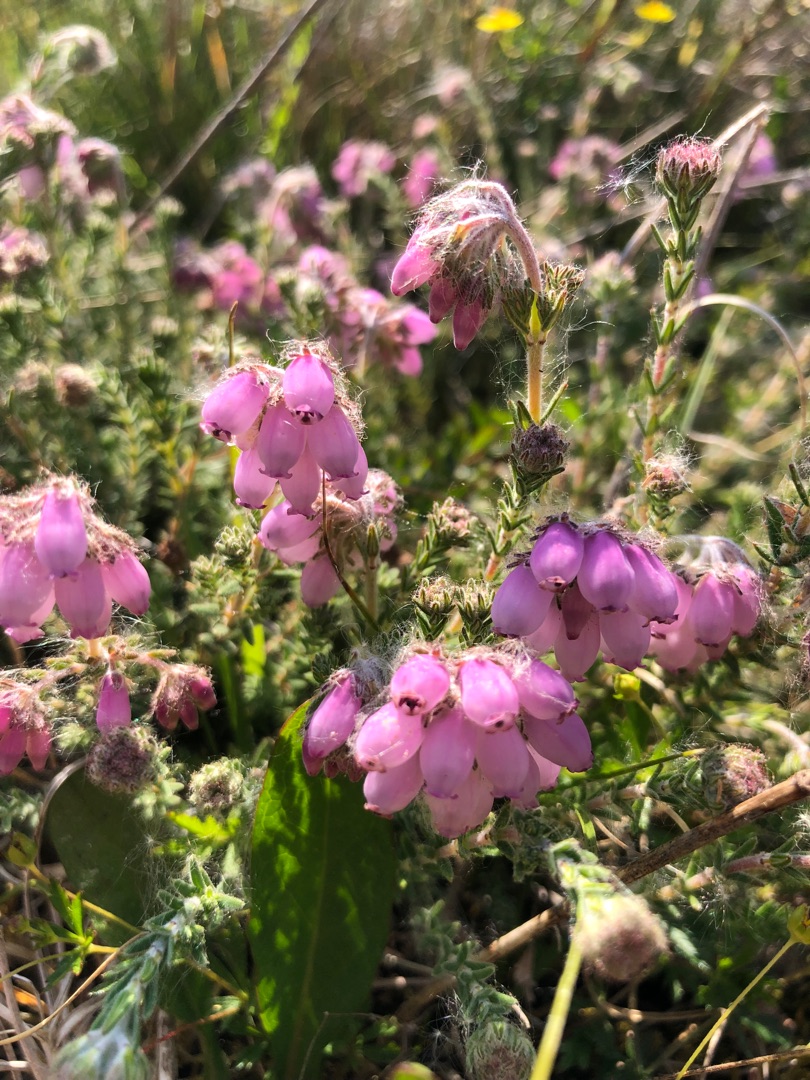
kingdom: Plantae
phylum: Tracheophyta
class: Magnoliopsida
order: Ericales
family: Ericaceae
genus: Erica
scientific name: Erica tetralix
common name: Klokkelyng
